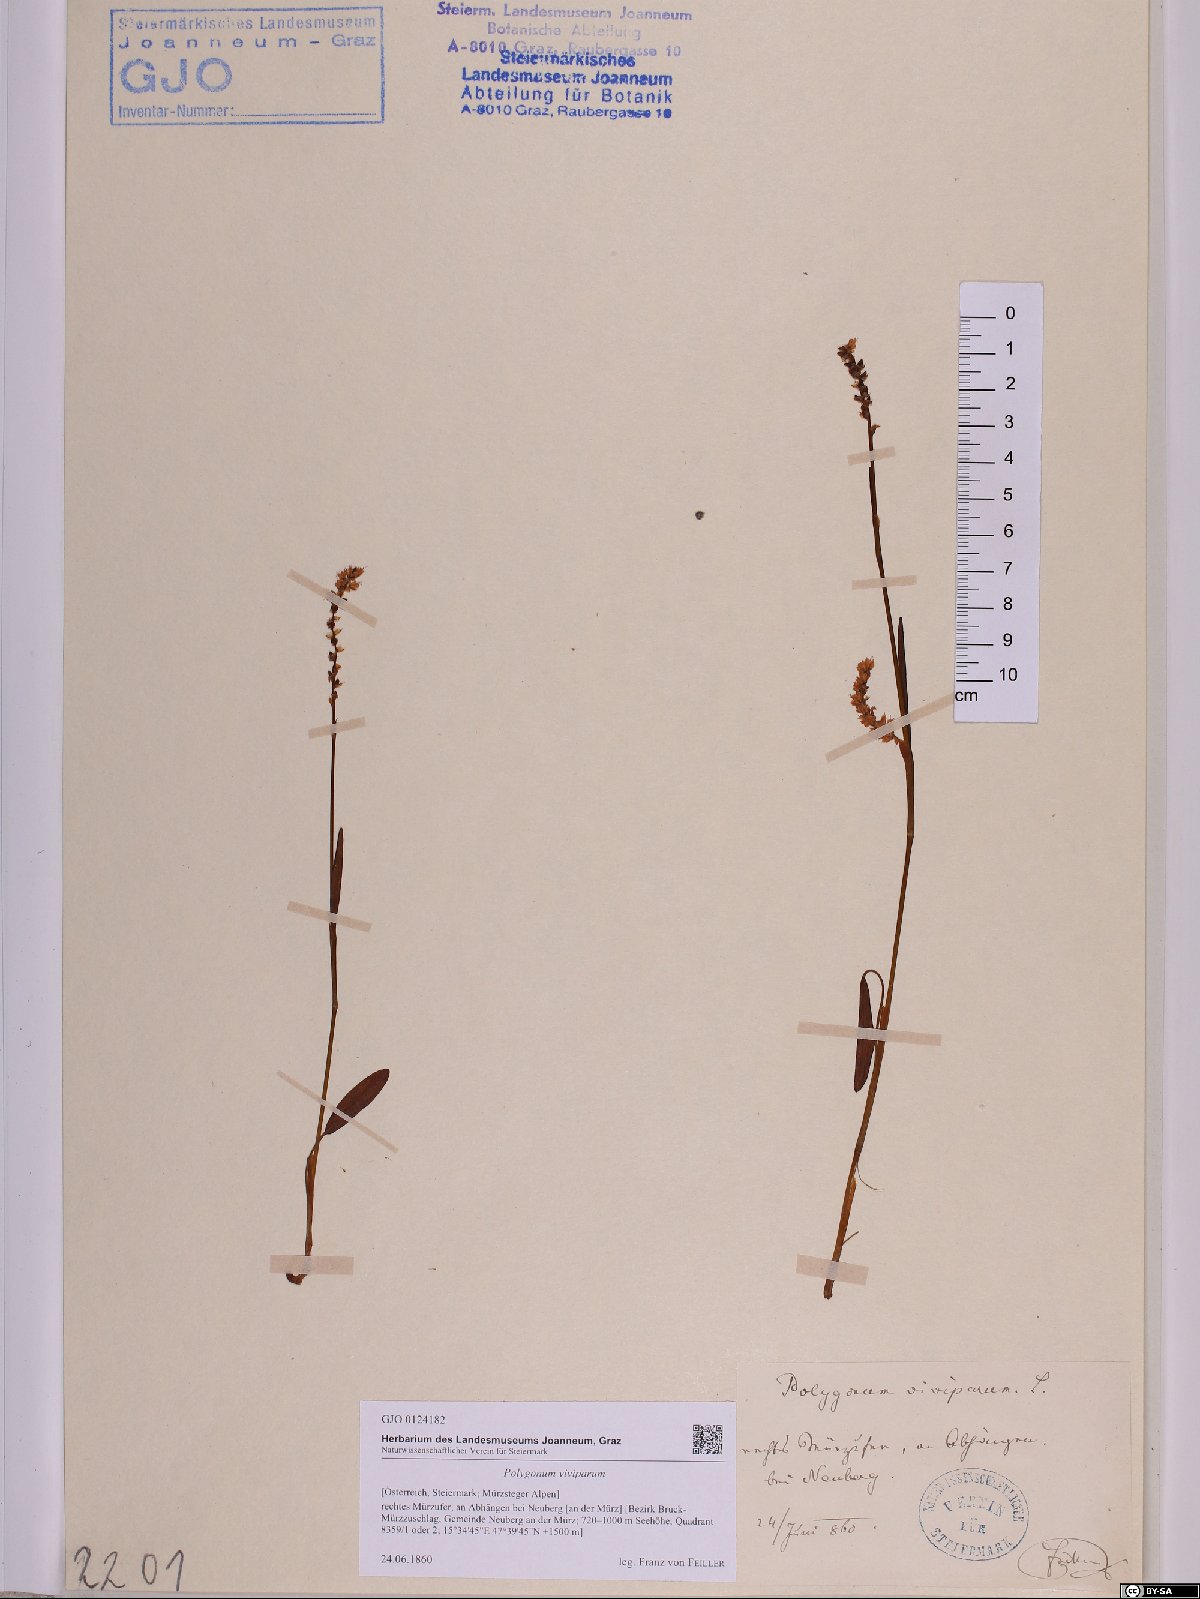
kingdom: Plantae
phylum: Tracheophyta
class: Magnoliopsida
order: Caryophyllales
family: Polygonaceae
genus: Bistorta
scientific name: Bistorta vivipara
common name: Alpine bistort
